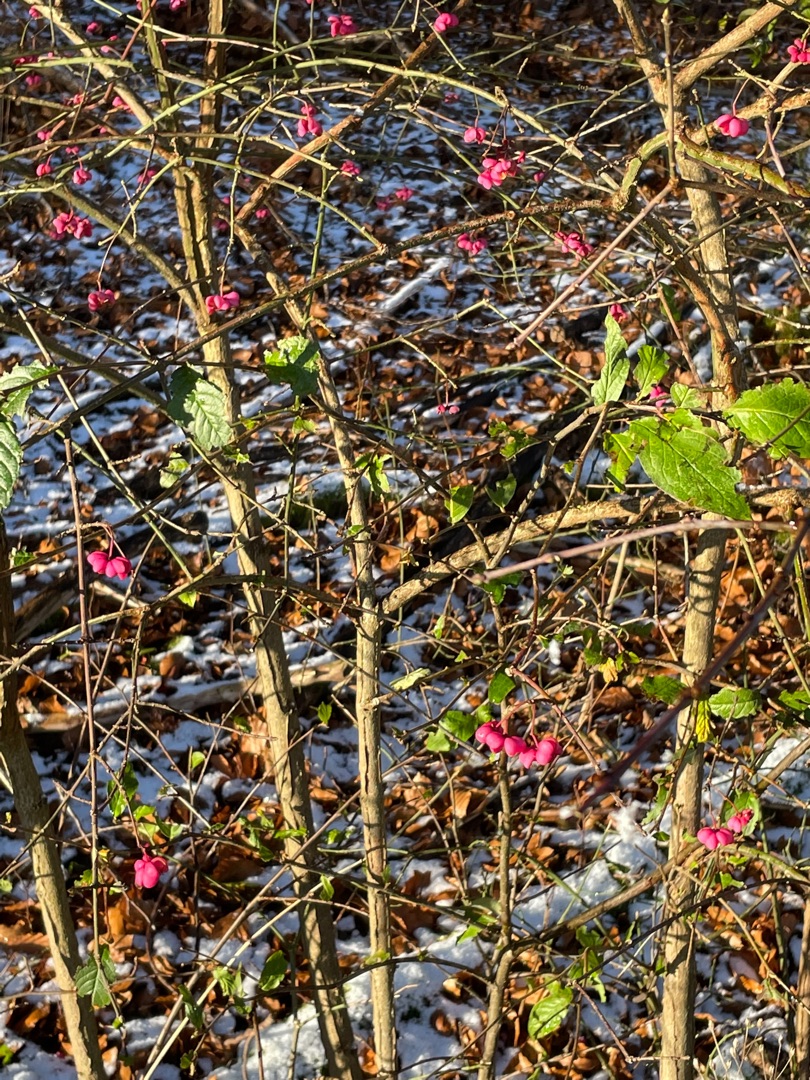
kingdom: Plantae
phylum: Tracheophyta
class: Magnoliopsida
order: Celastrales
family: Celastraceae
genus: Euonymus
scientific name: Euonymus europaeus
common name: Benved
